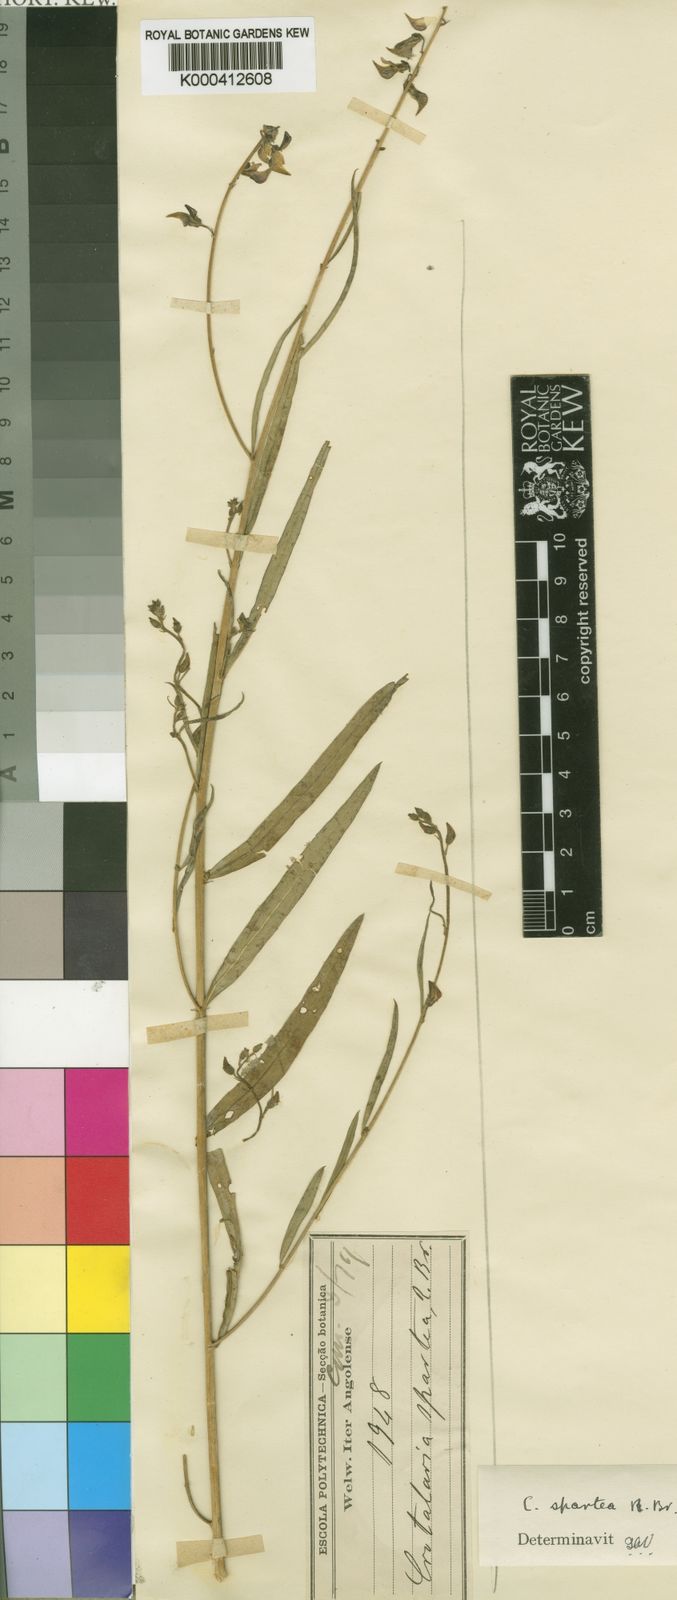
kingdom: Plantae
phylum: Tracheophyta
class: Magnoliopsida
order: Fabales
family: Fabaceae
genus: Crotalaria
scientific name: Crotalaria
